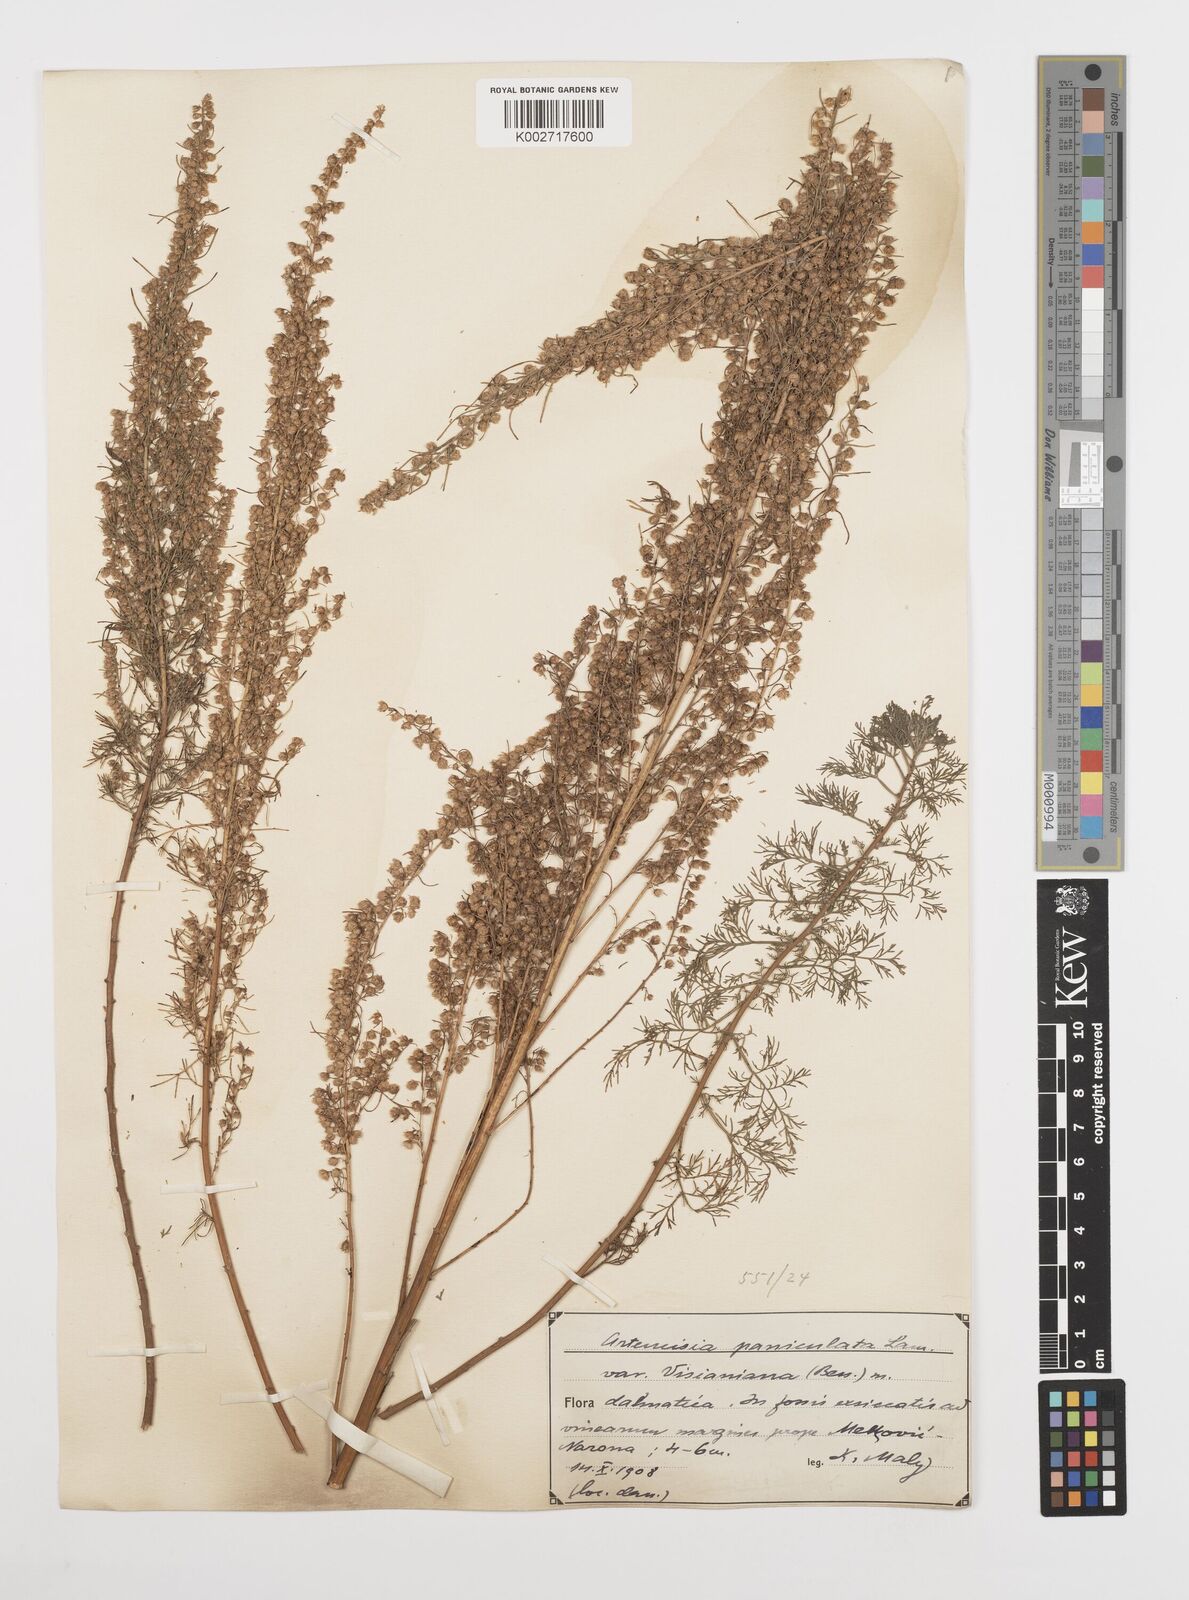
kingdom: Plantae
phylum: Tracheophyta
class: Magnoliopsida
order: Asterales
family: Asteraceae
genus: Artemisia
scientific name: Artemisia campestris
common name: Field wormwood
